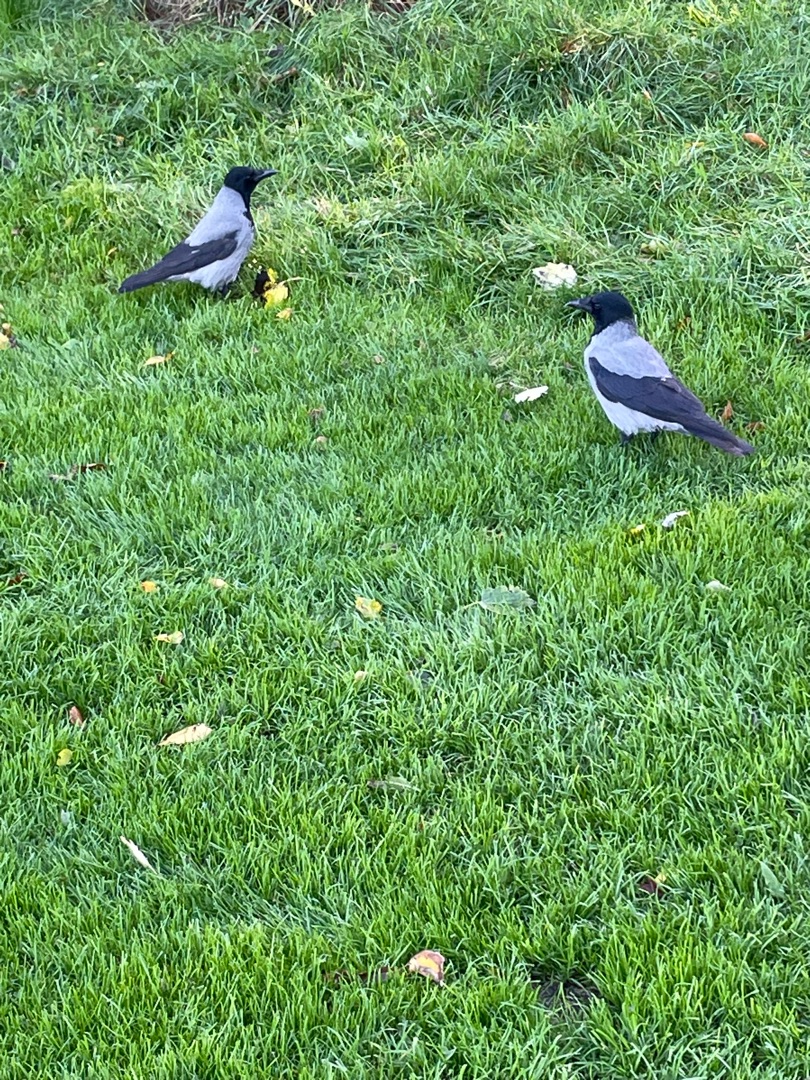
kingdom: Animalia
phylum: Chordata
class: Aves
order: Passeriformes
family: Corvidae
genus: Corvus
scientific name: Corvus cornix
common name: Gråkrage
